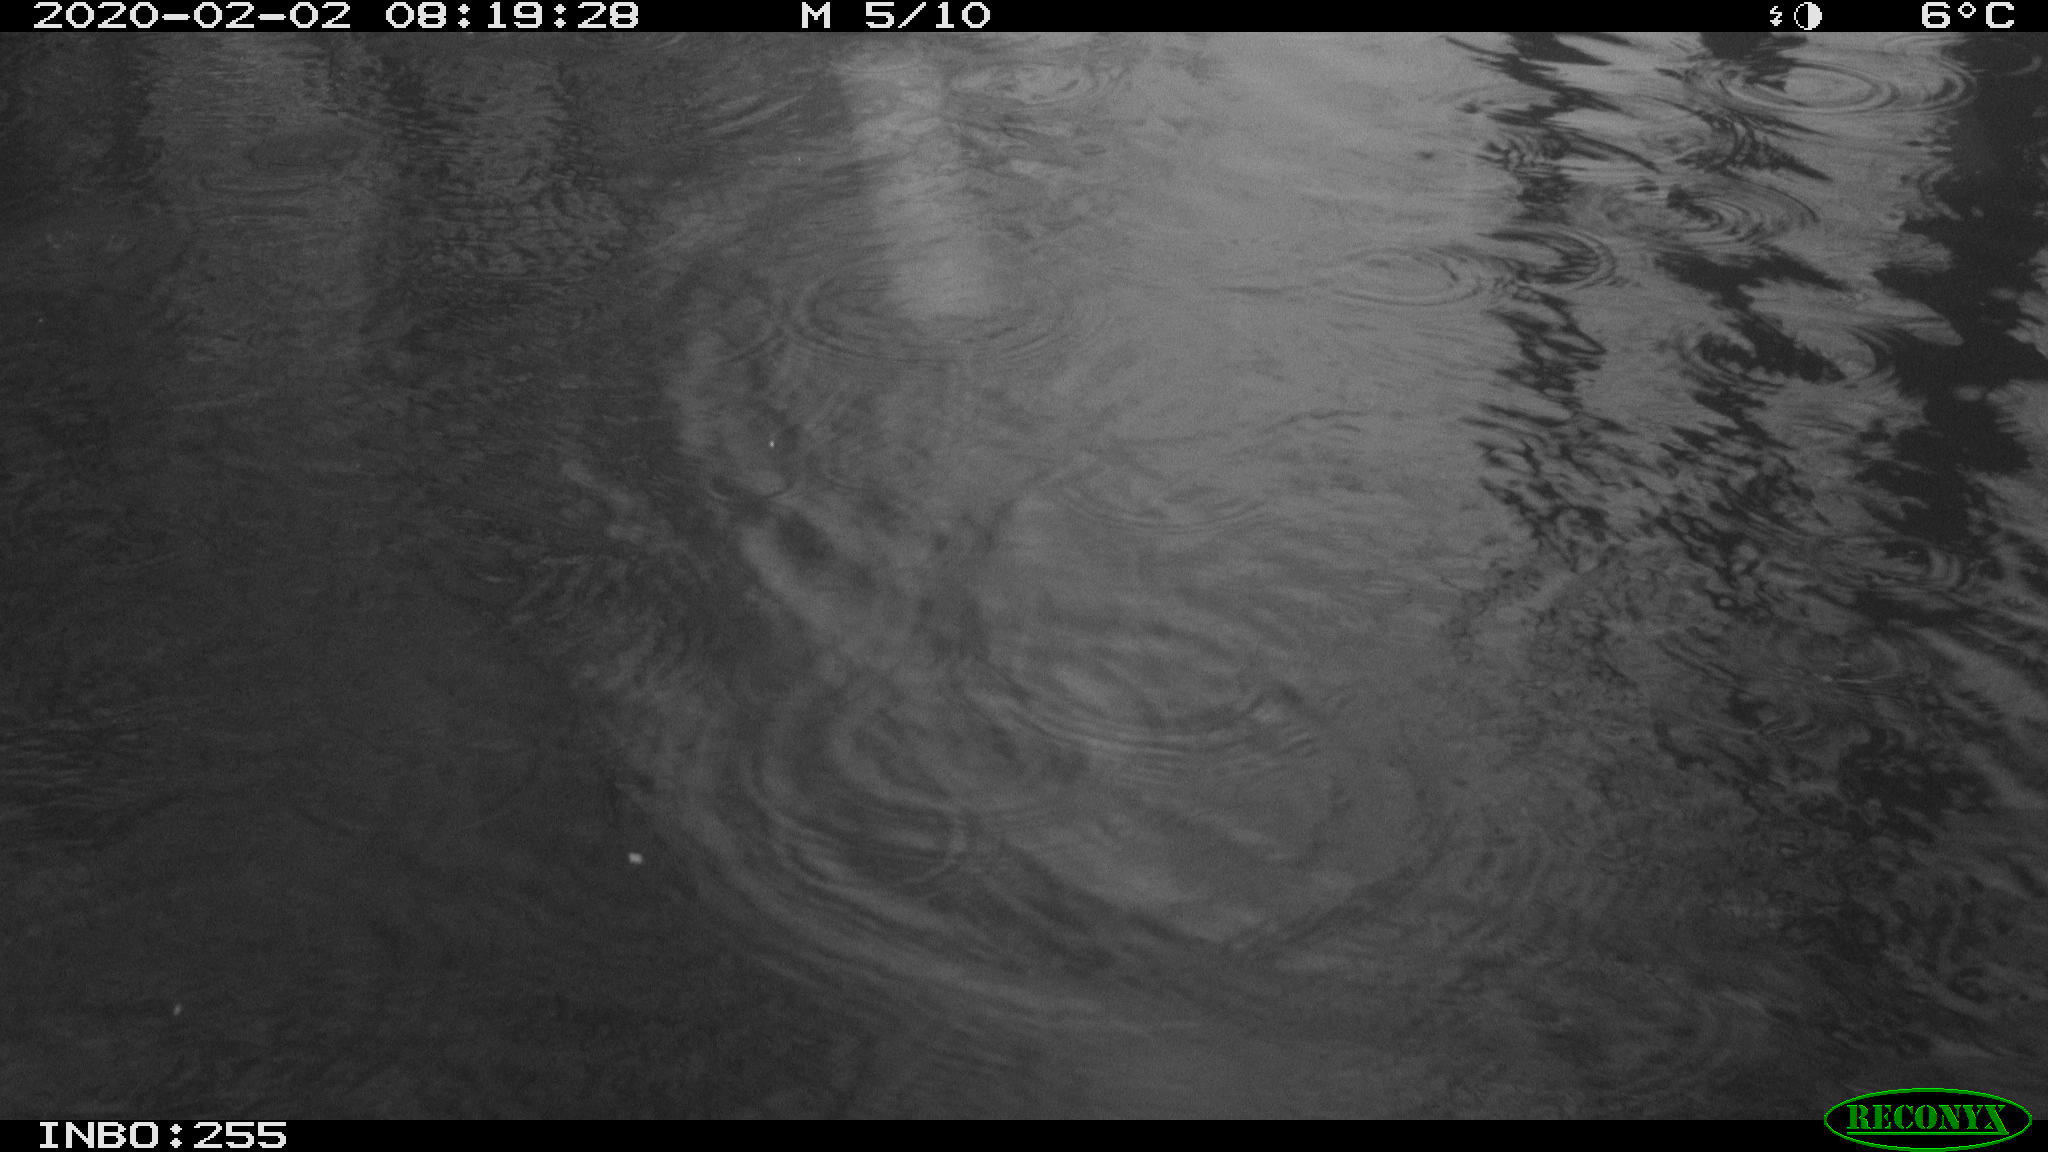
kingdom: Animalia
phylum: Chordata
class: Aves
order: Gruiformes
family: Rallidae
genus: Gallinula
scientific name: Gallinula chloropus
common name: Common moorhen
